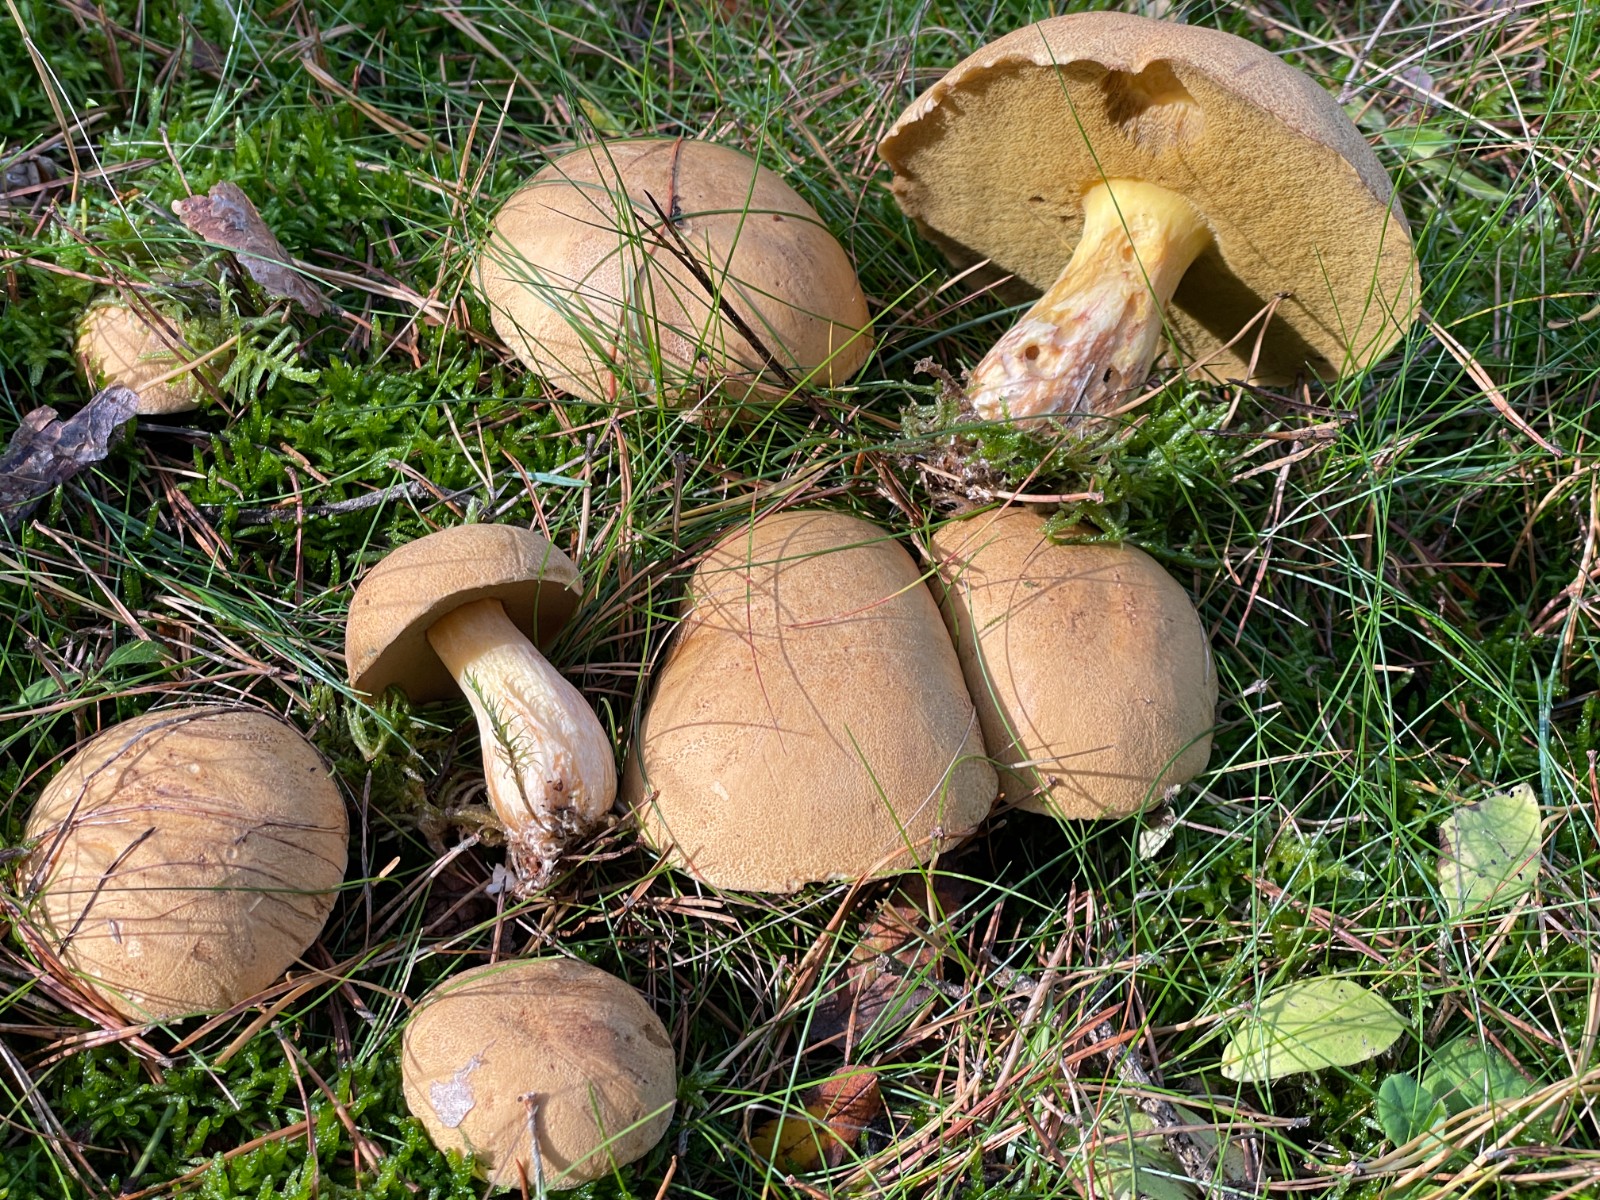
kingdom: Fungi
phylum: Basidiomycota
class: Agaricomycetes
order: Boletales
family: Suillaceae
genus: Suillus
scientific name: Suillus variegatus
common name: broget slimrørhat
